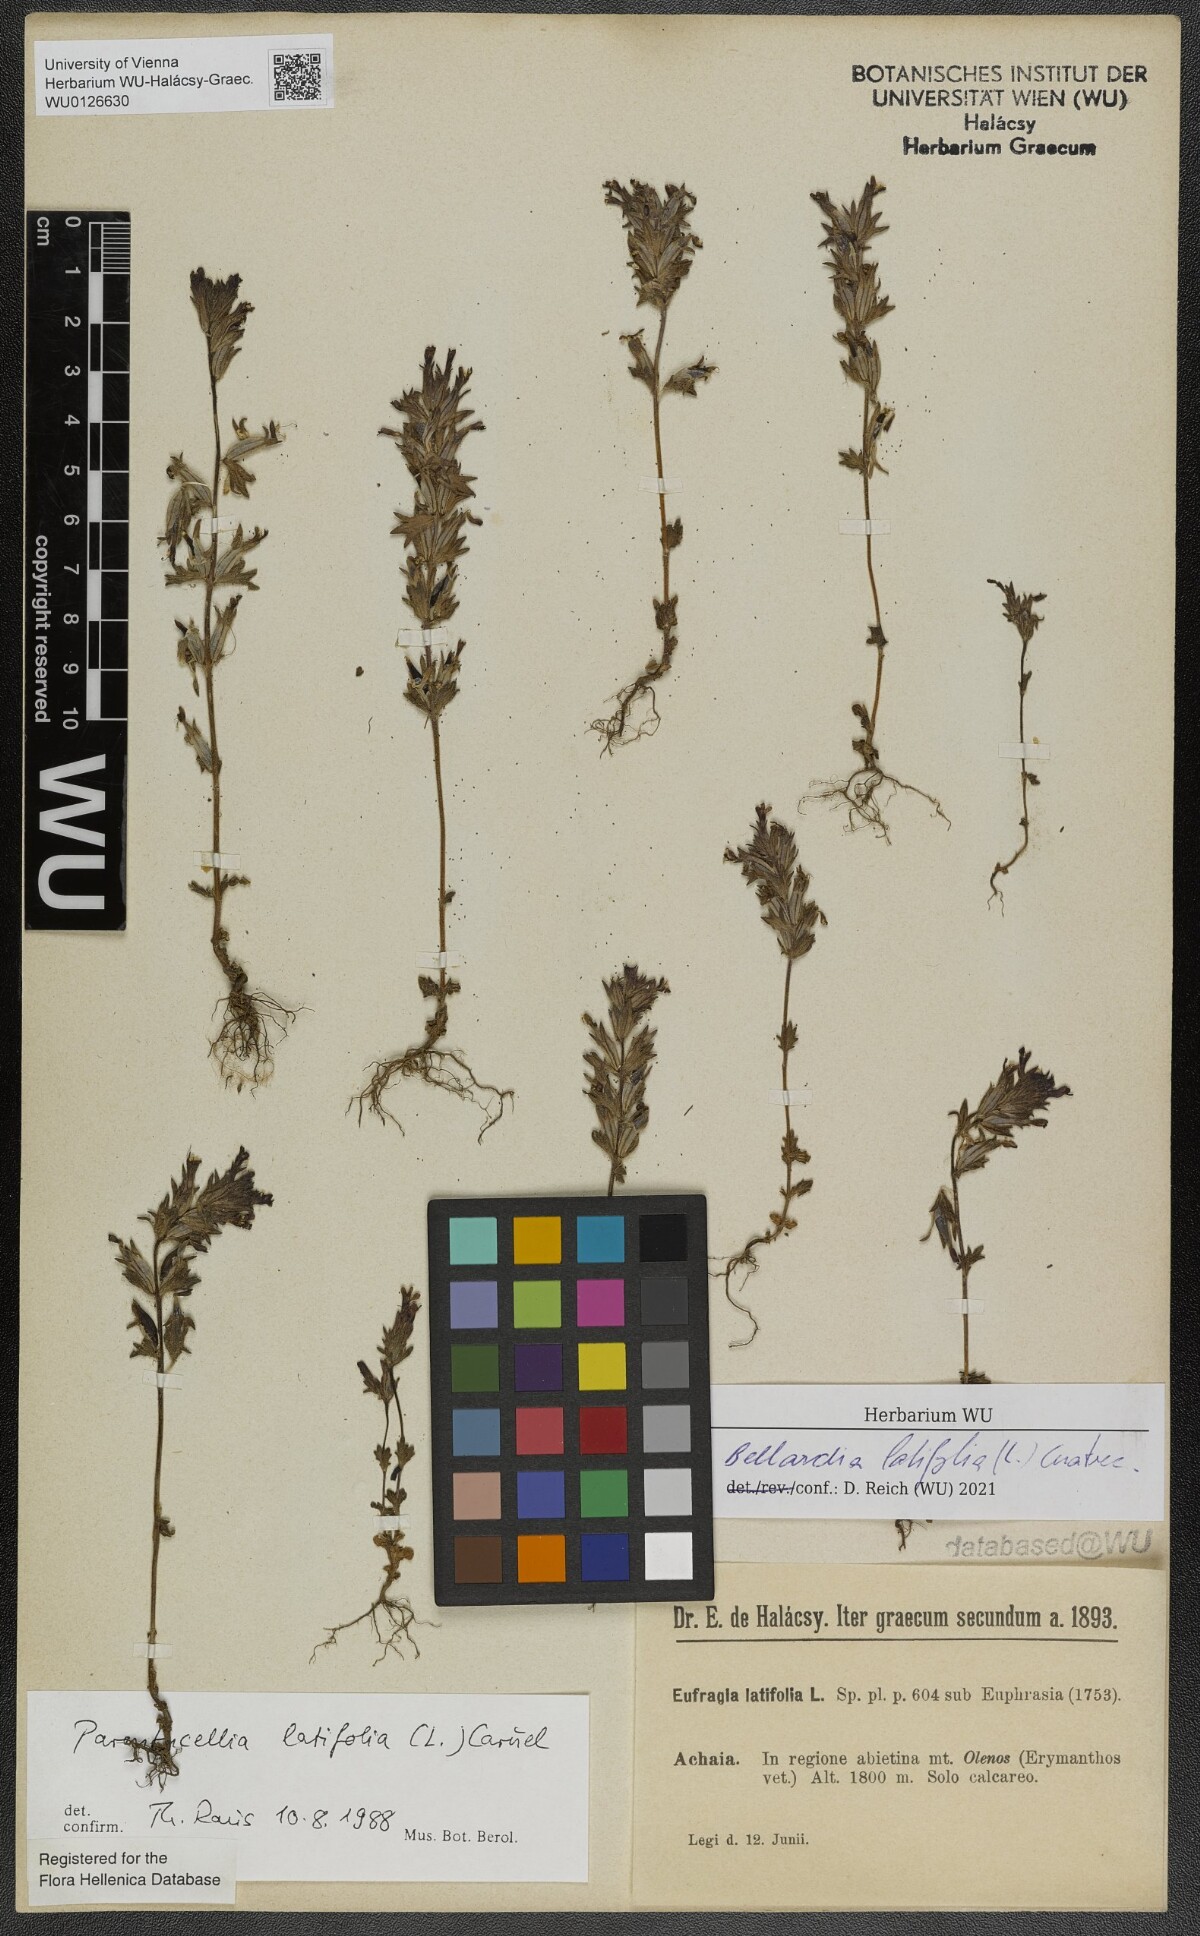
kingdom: Plantae
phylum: Tracheophyta
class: Magnoliopsida
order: Lamiales
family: Orobanchaceae
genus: Parentucellia
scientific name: Parentucellia latifolia
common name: Broadleaf glandweed
